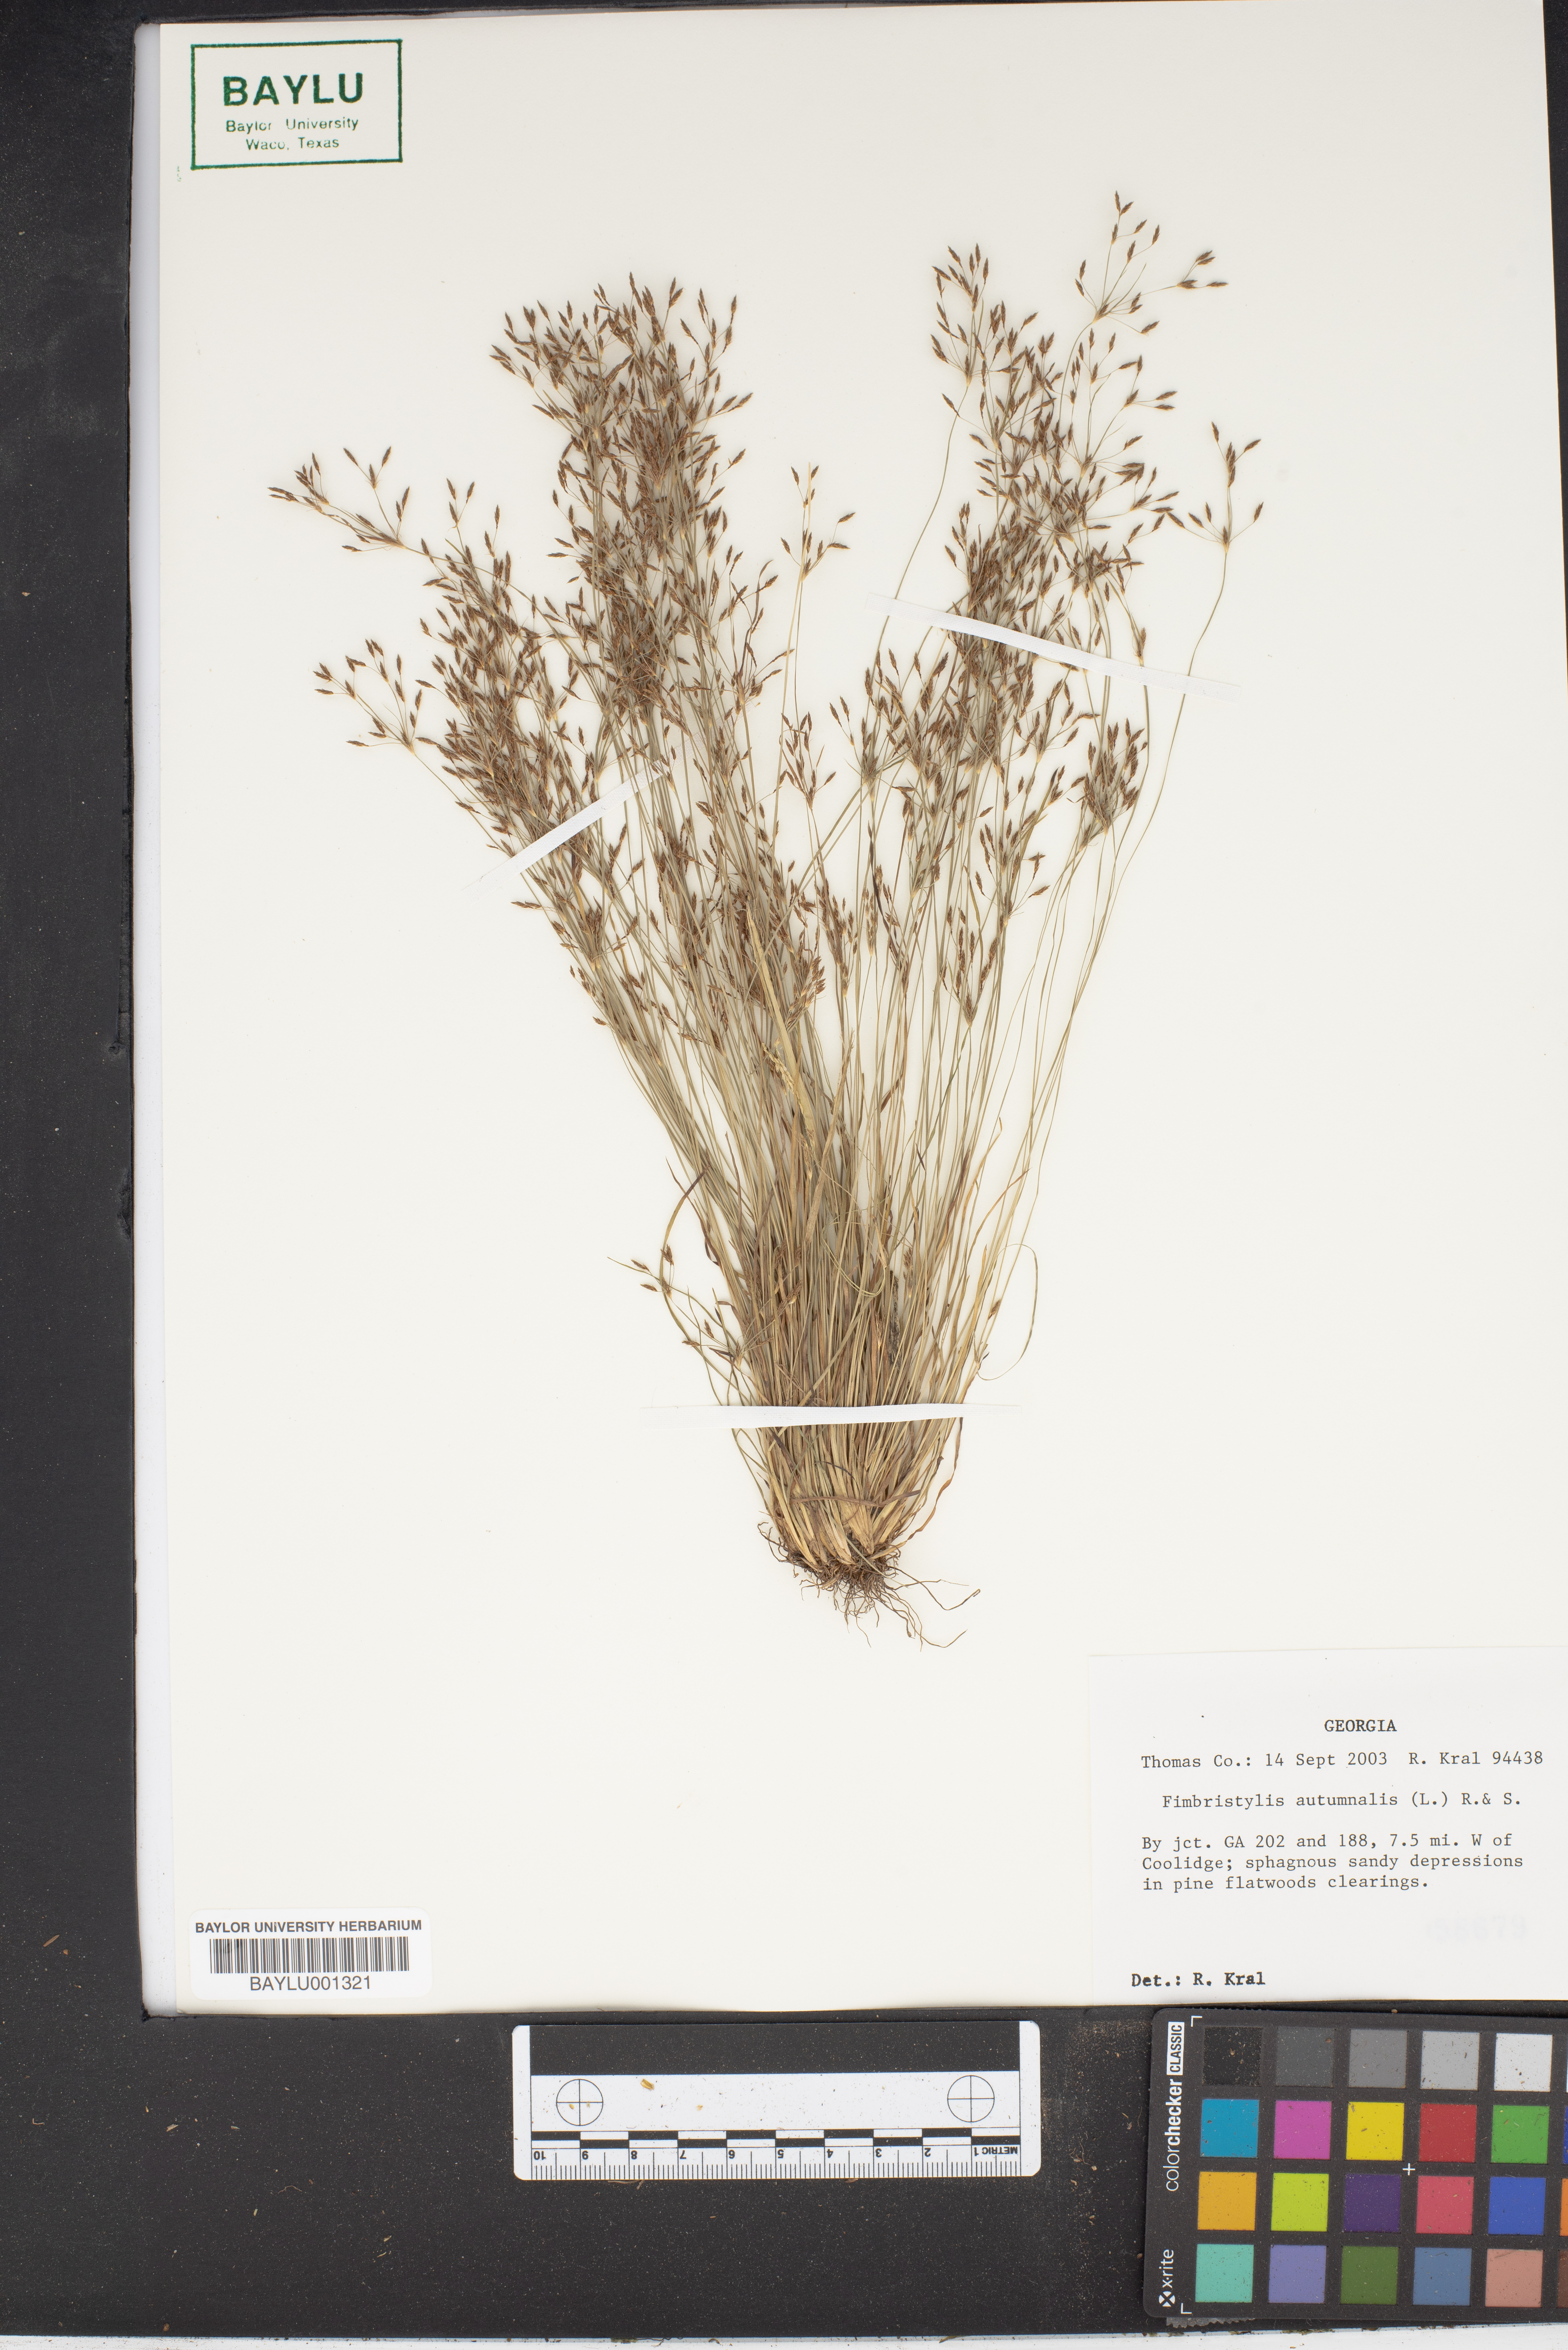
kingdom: Plantae
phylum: Tracheophyta
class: Liliopsida
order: Poales
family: Cyperaceae
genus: Fimbristylis
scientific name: Fimbristylis autumnalis
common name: Slender fimbristylis
